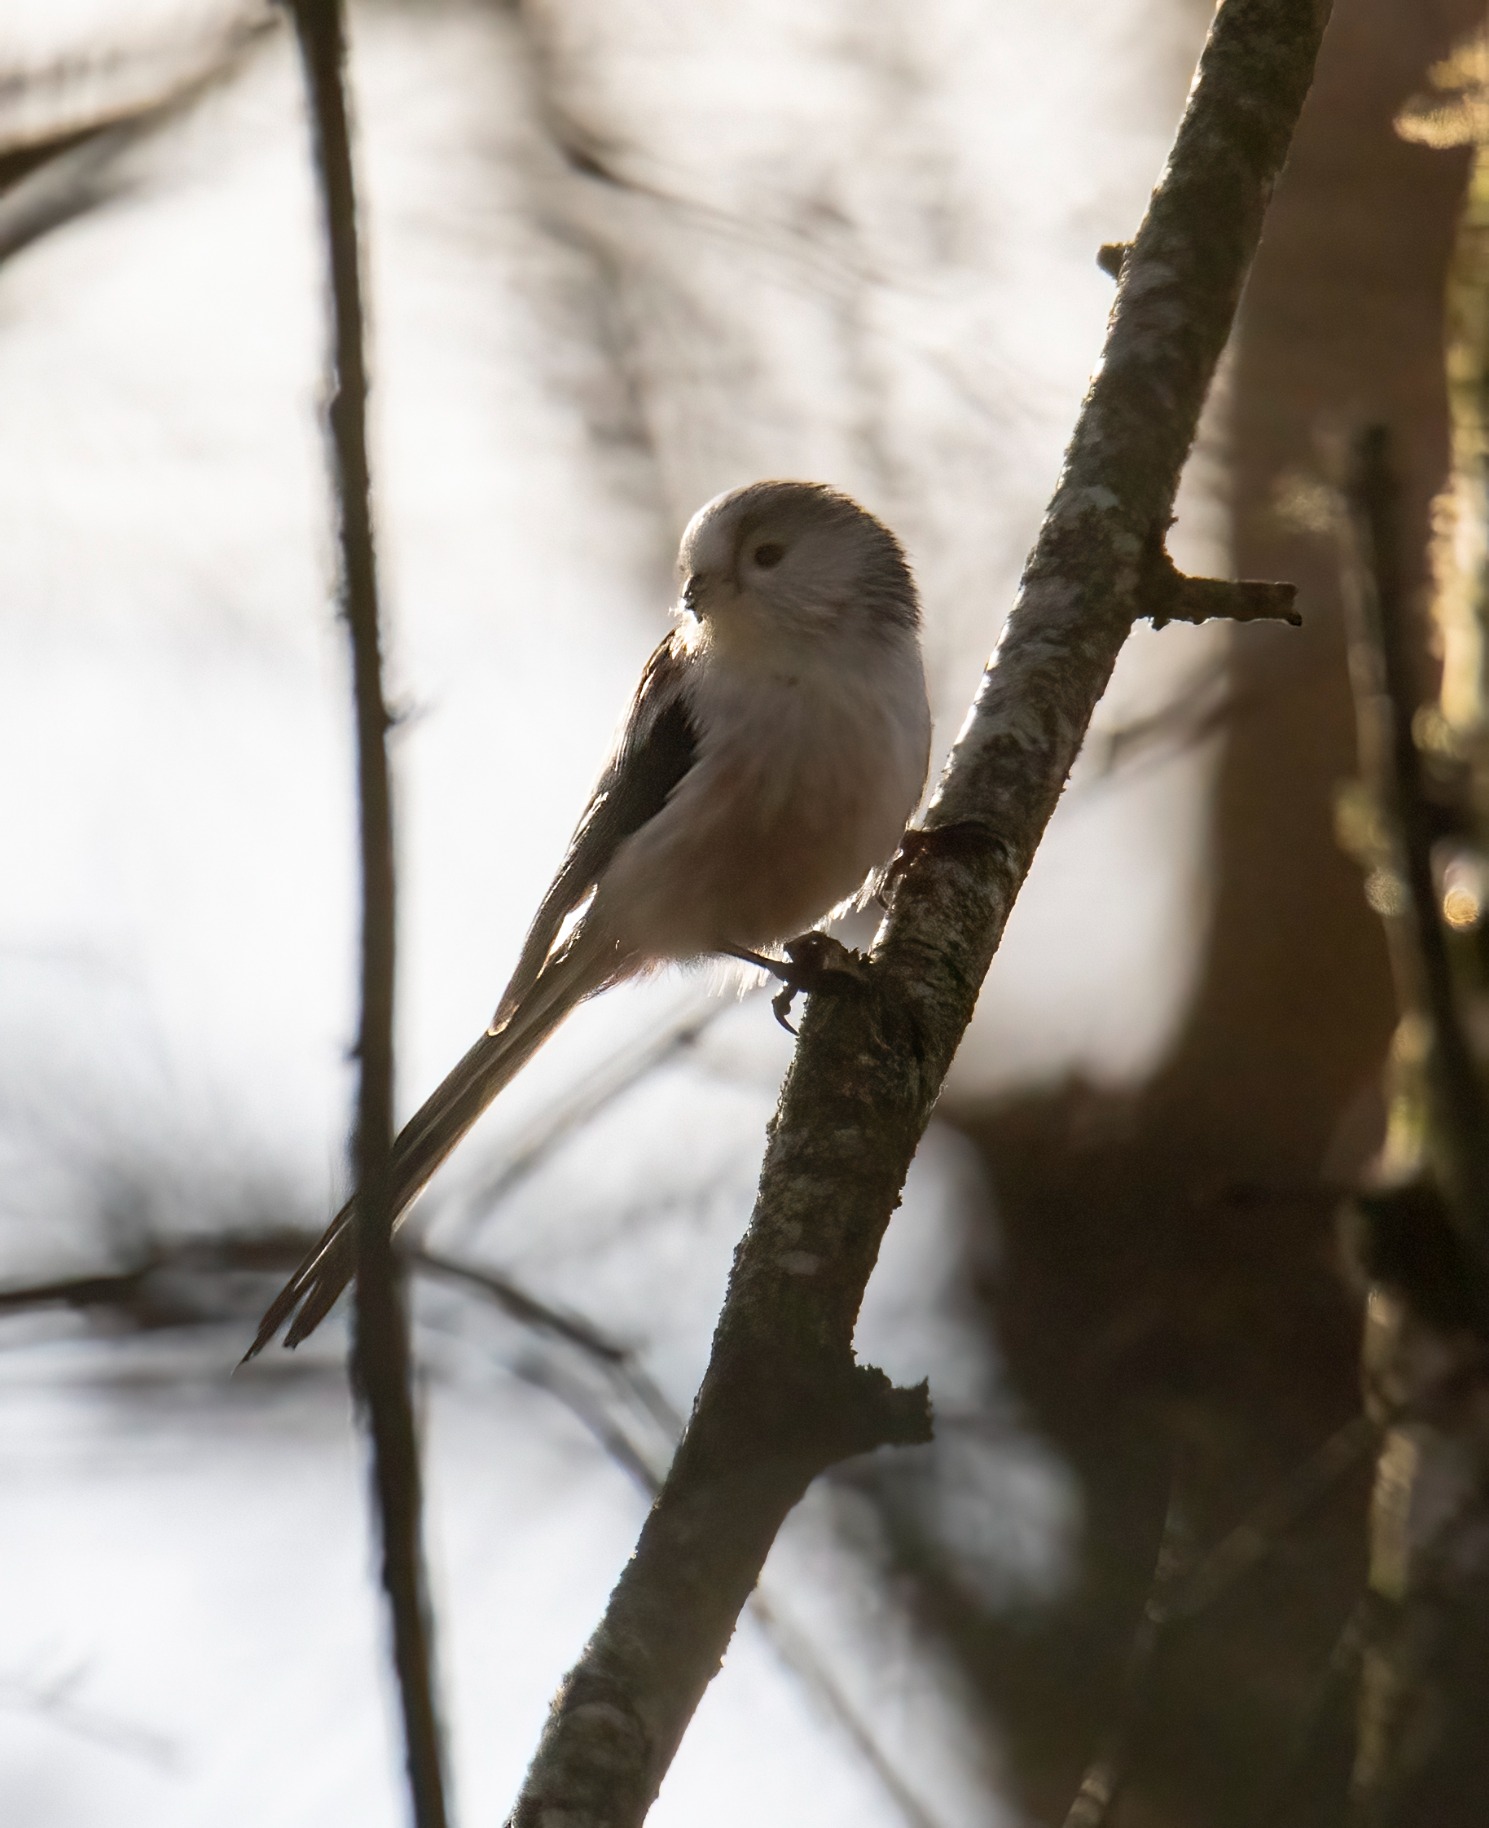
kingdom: Animalia
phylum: Chordata
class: Aves
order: Passeriformes
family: Aegithalidae
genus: Aegithalos
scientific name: Aegithalos caudatus
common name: Halemejse
